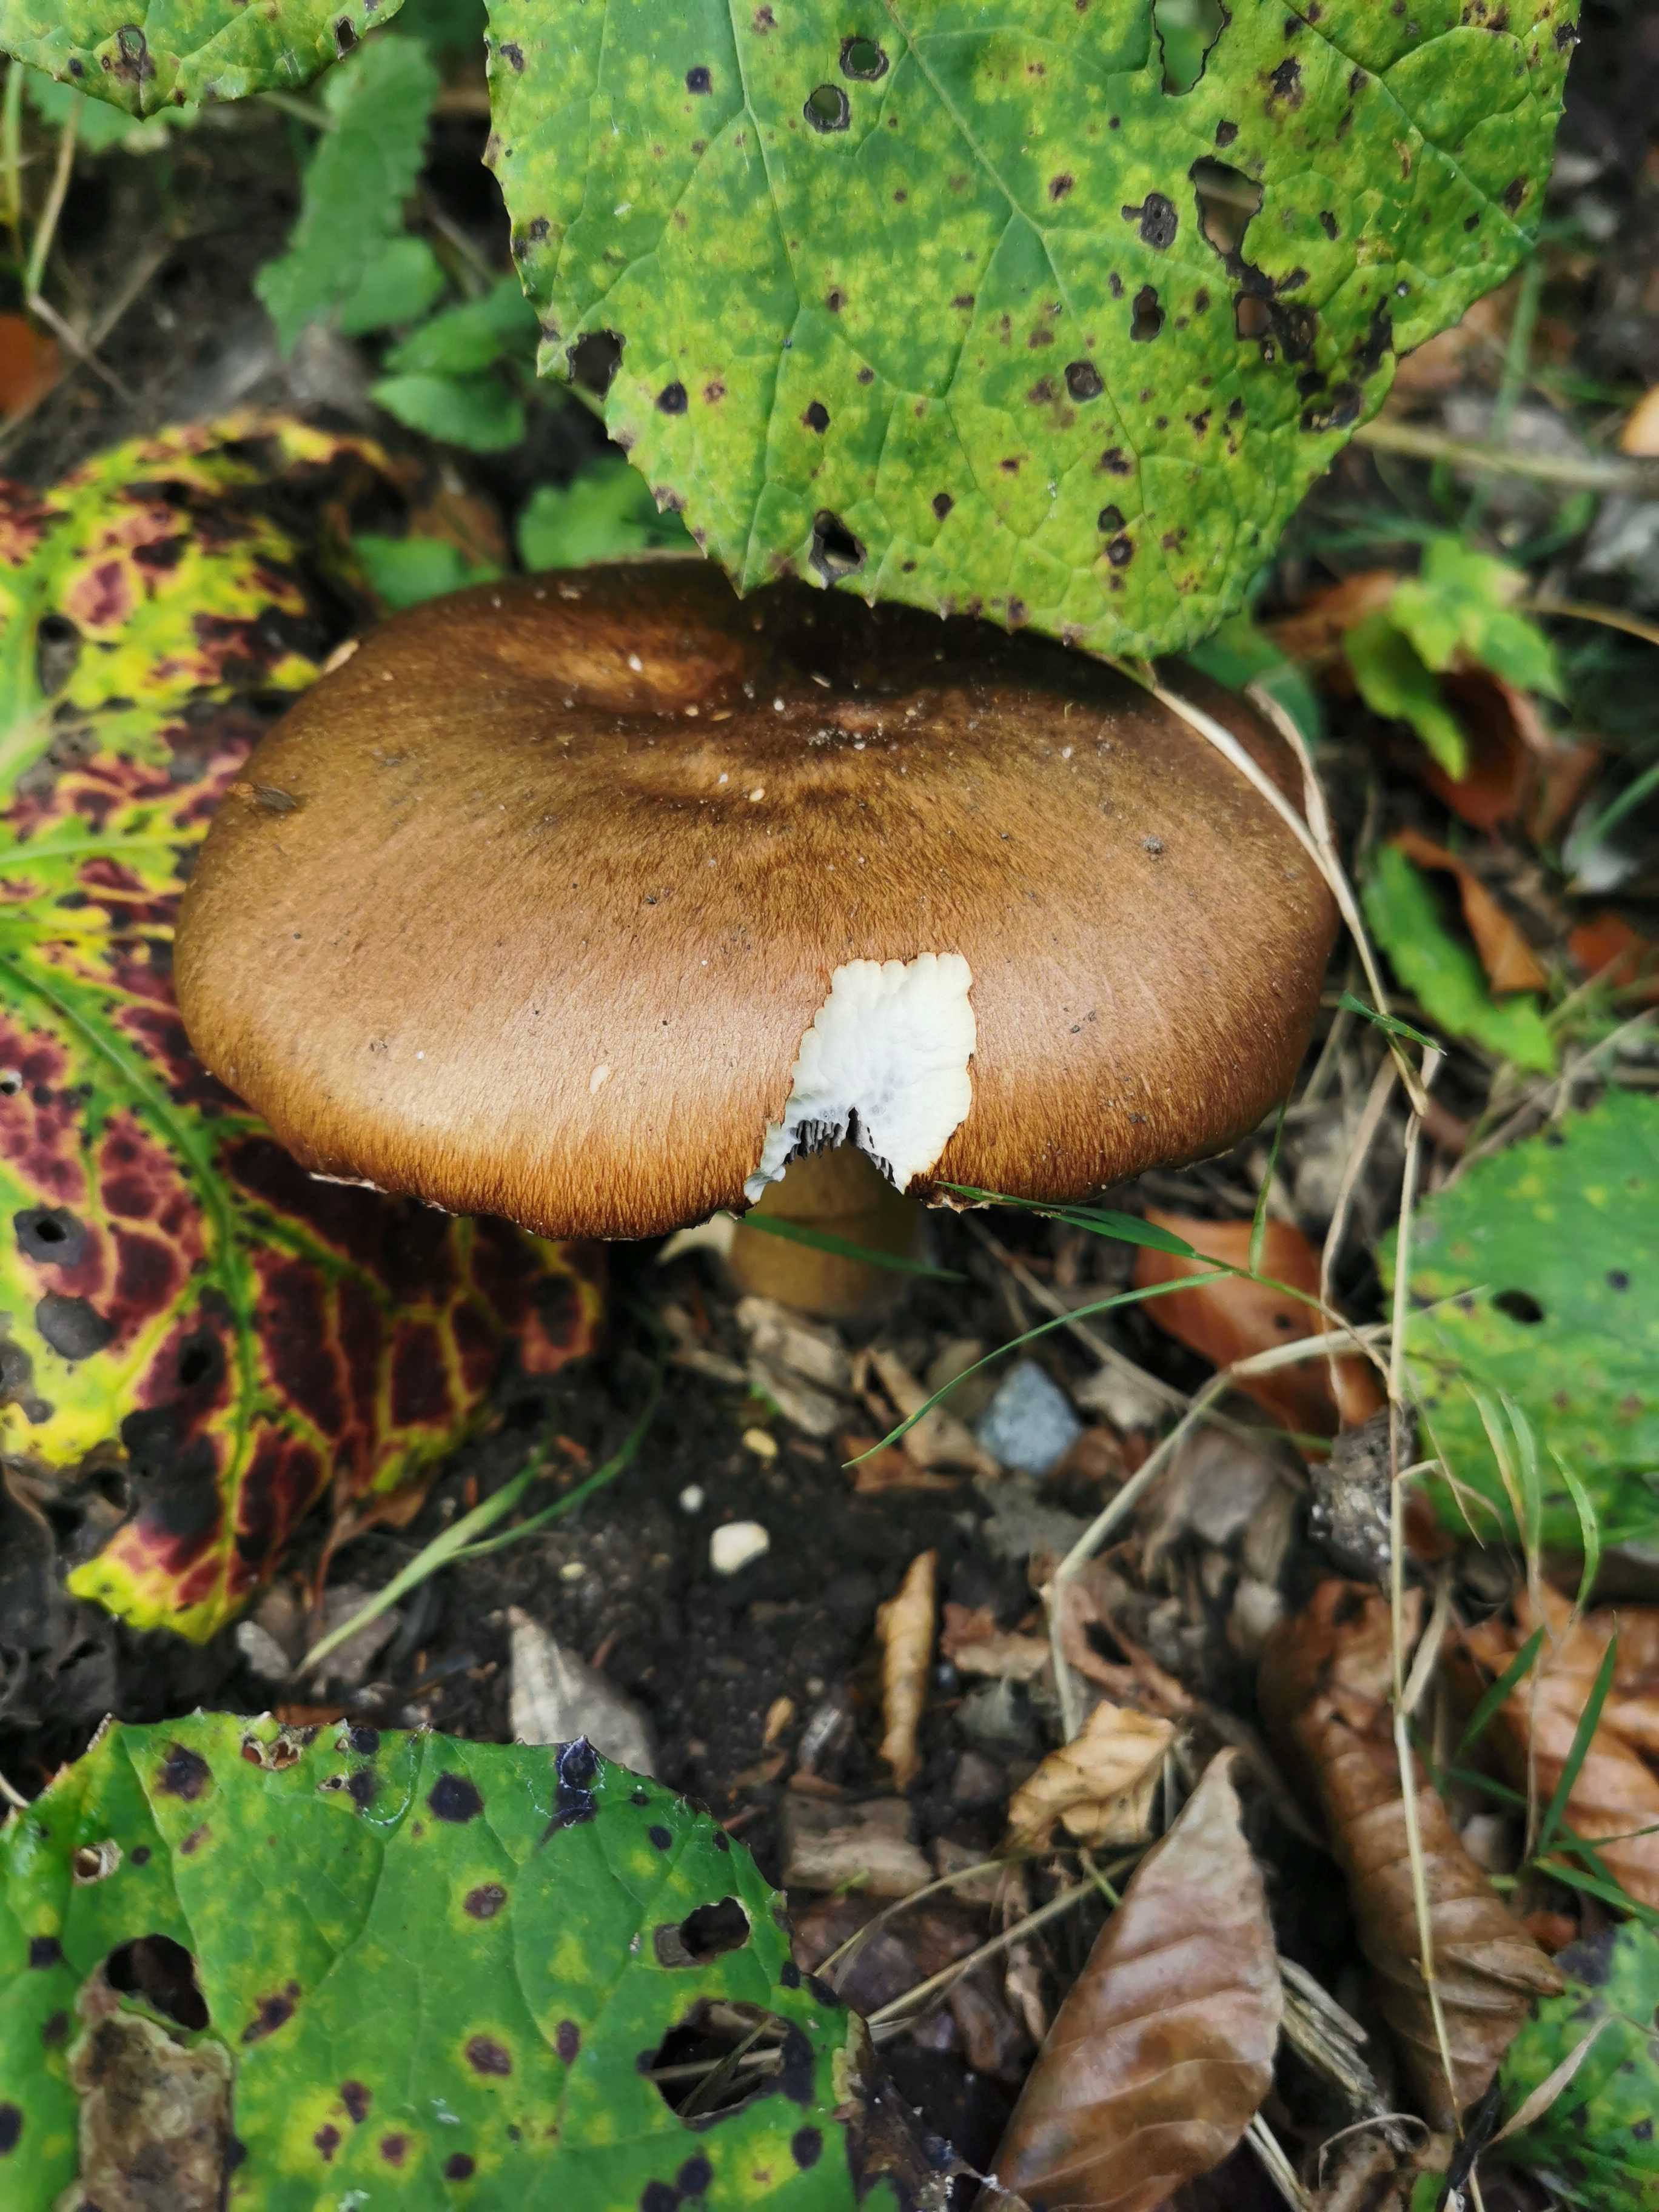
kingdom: Fungi
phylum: Basidiomycota
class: Agaricomycetes
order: Agaricales
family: Strophariaceae
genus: Stropharia
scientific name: Stropharia rugosoannulata
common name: rødbrun bredblad
